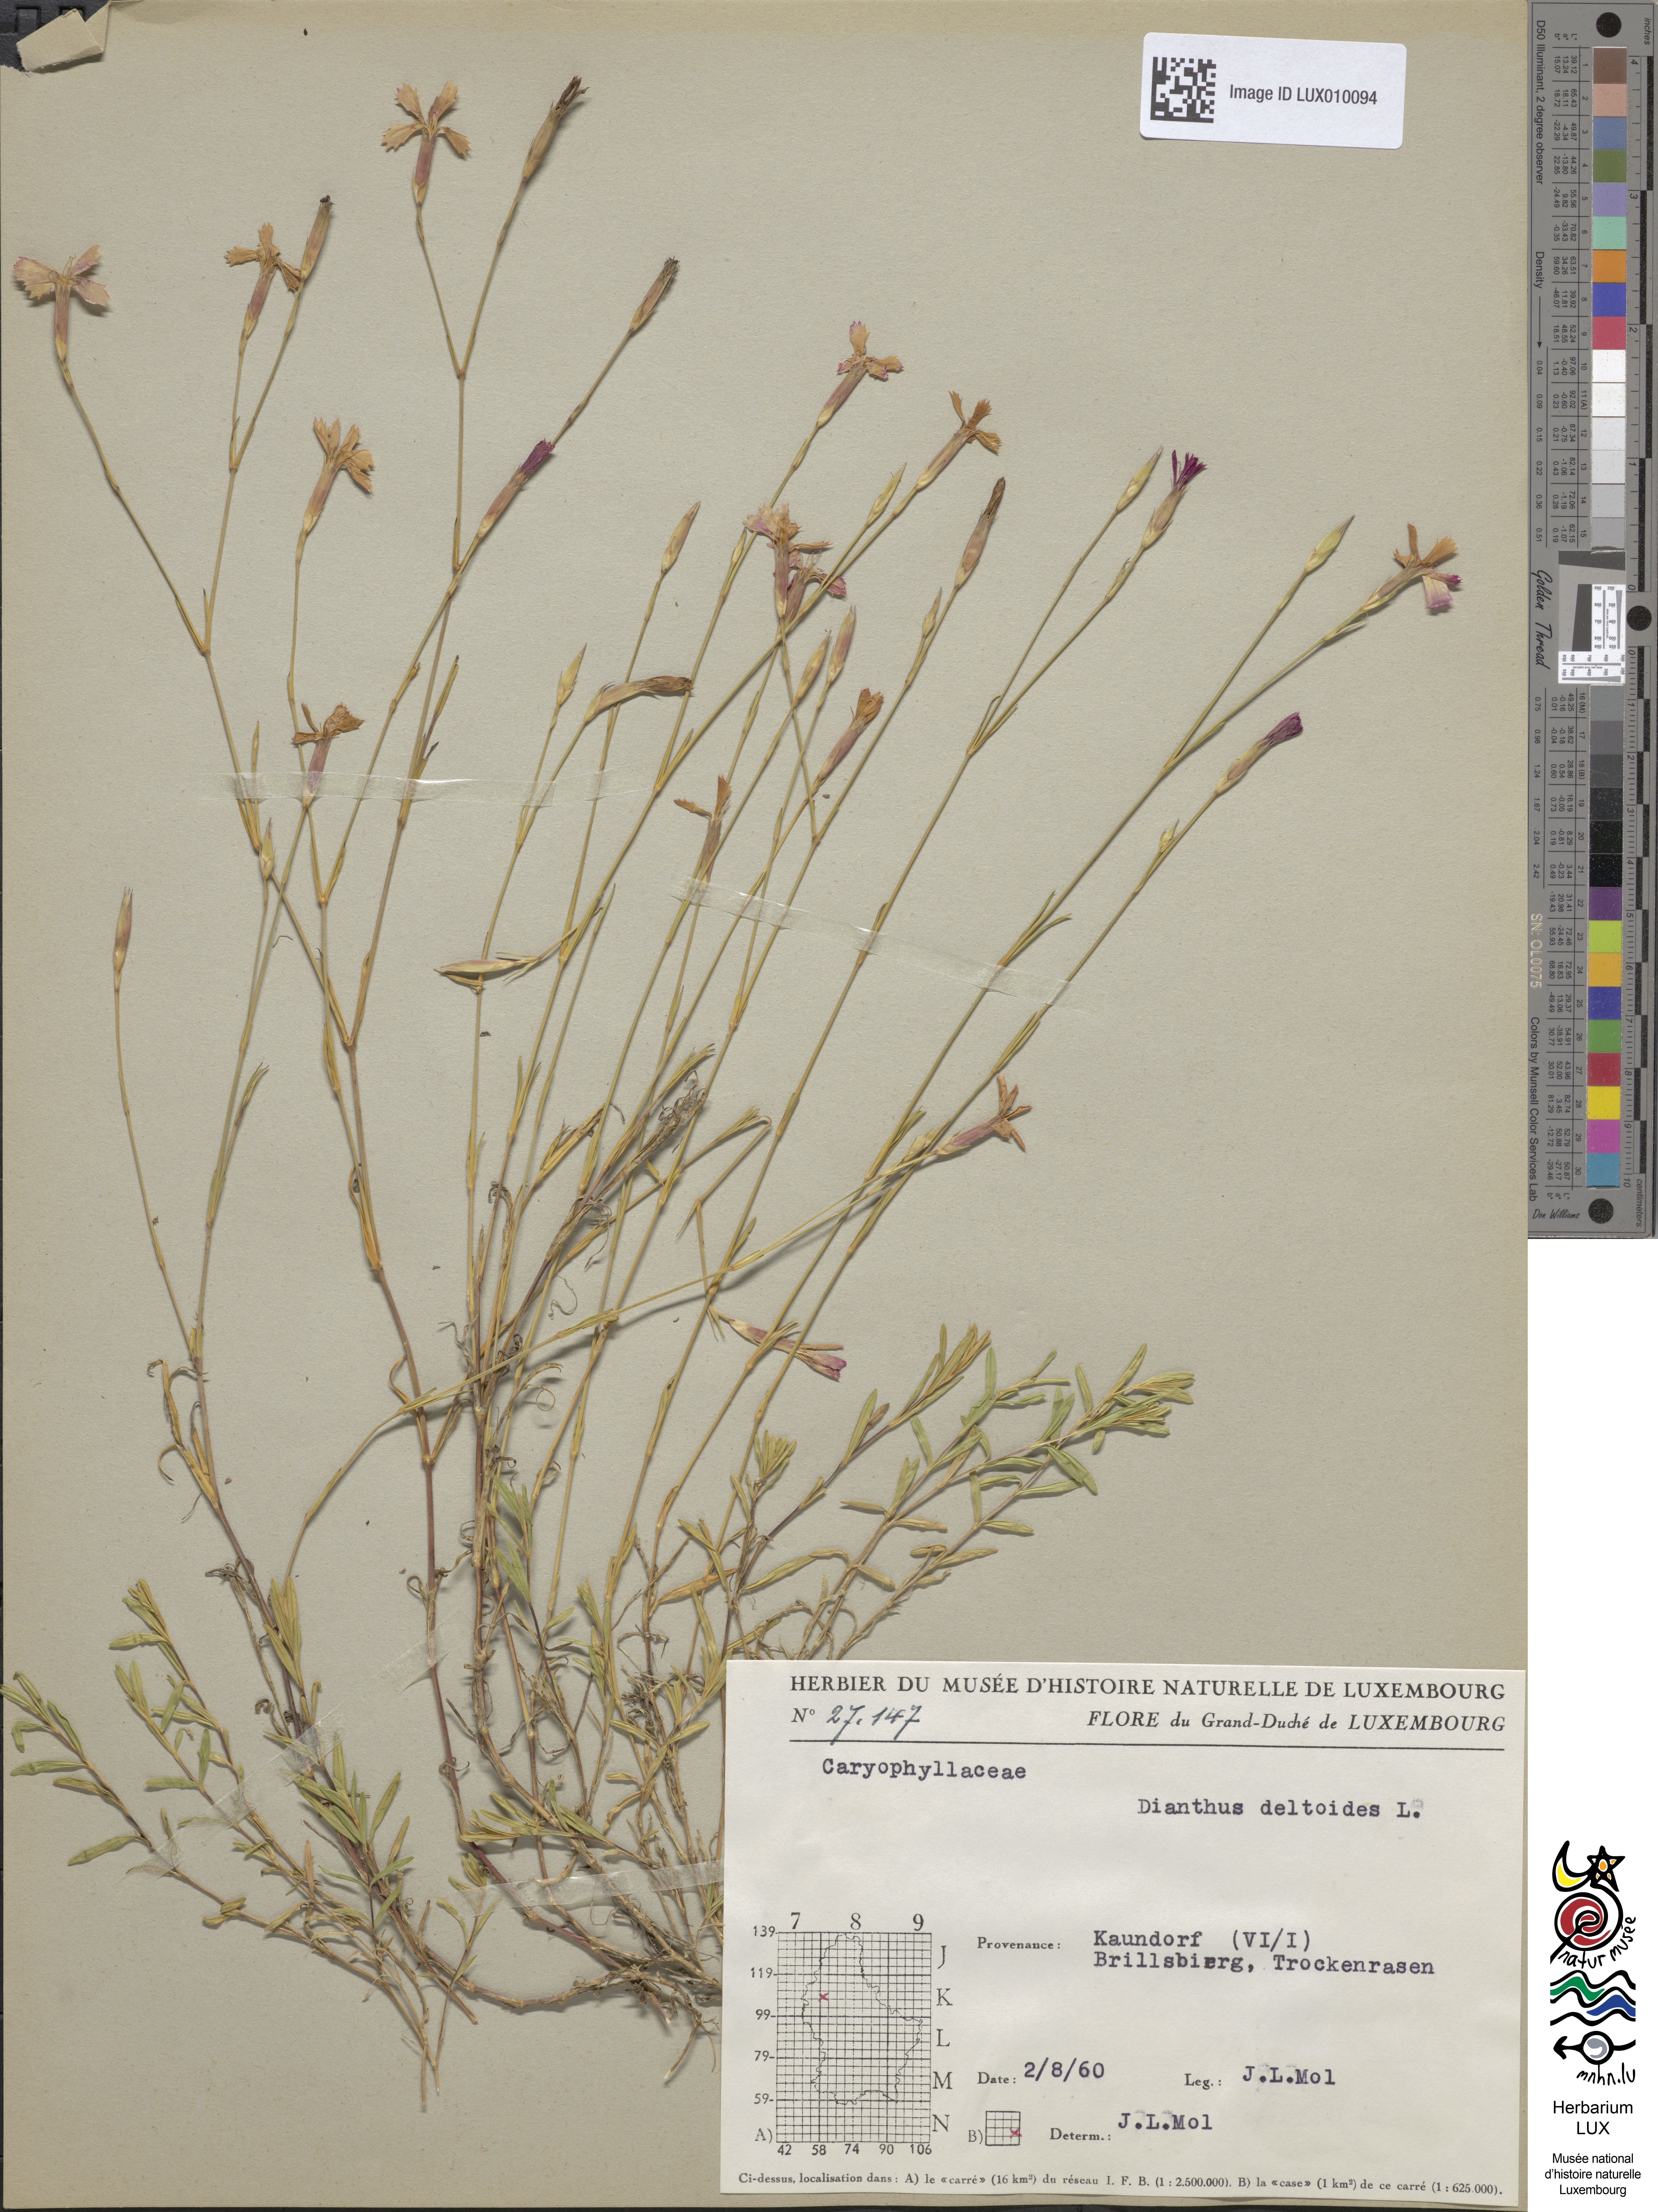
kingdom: Plantae
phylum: Tracheophyta
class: Magnoliopsida
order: Caryophyllales
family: Caryophyllaceae
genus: Dianthus
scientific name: Dianthus deltoides
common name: Maiden pink
